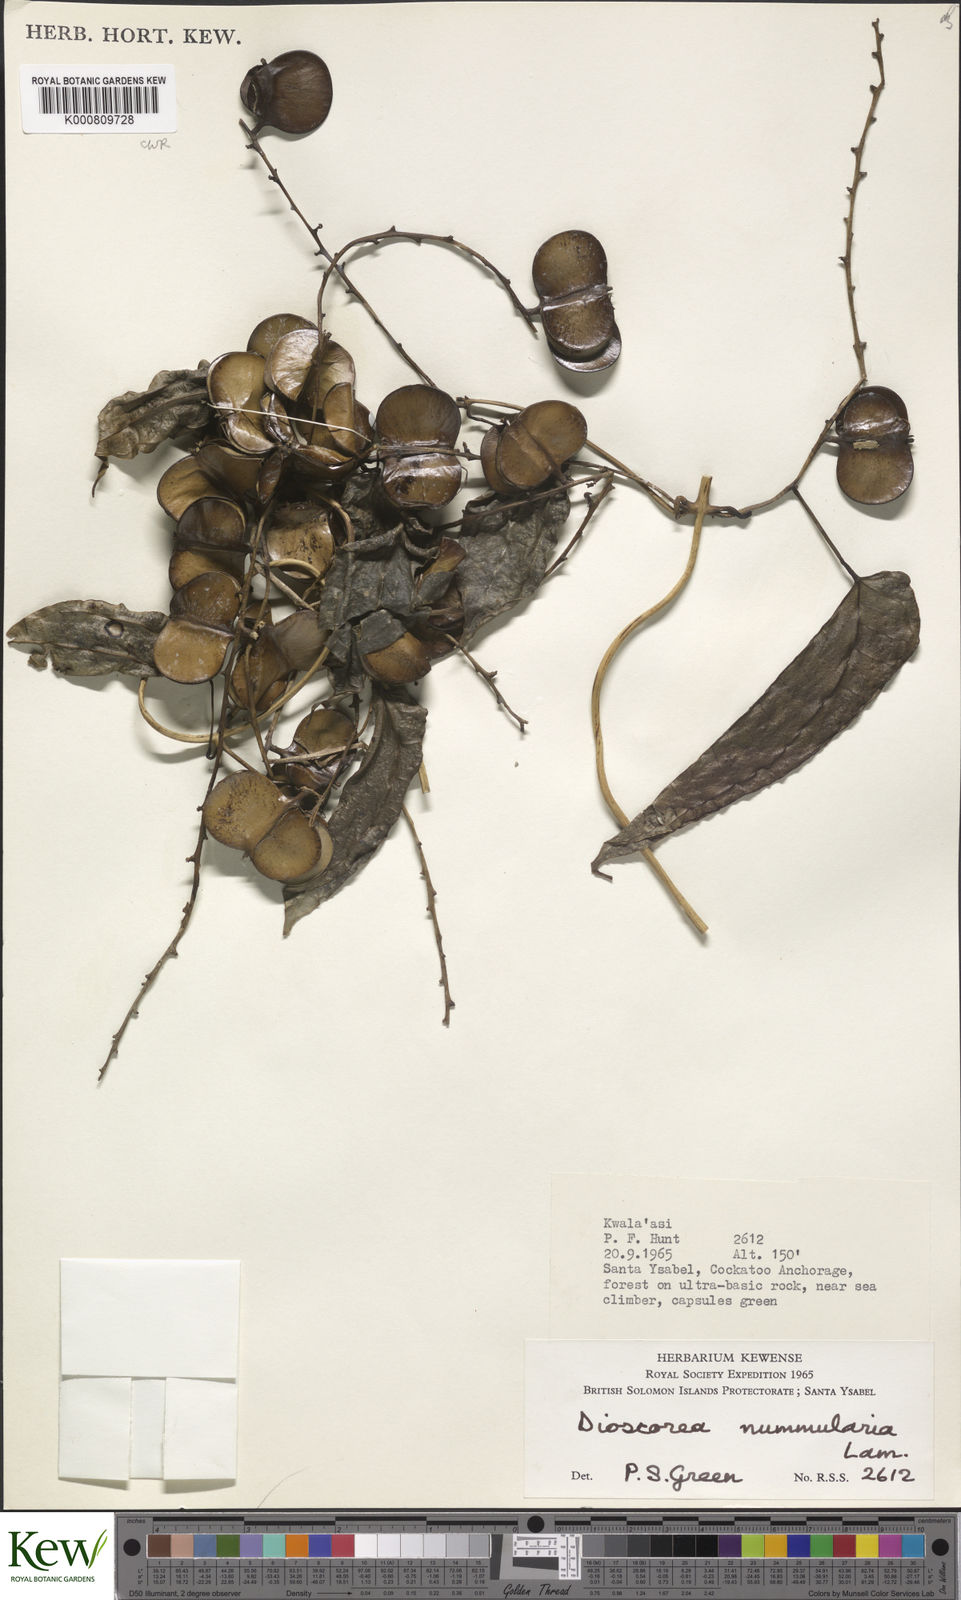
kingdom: Plantae
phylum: Tracheophyta
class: Liliopsida
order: Dioscoreales
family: Dioscoreaceae
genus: Dioscorea
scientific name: Dioscorea nummularia
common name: Pacific yam
